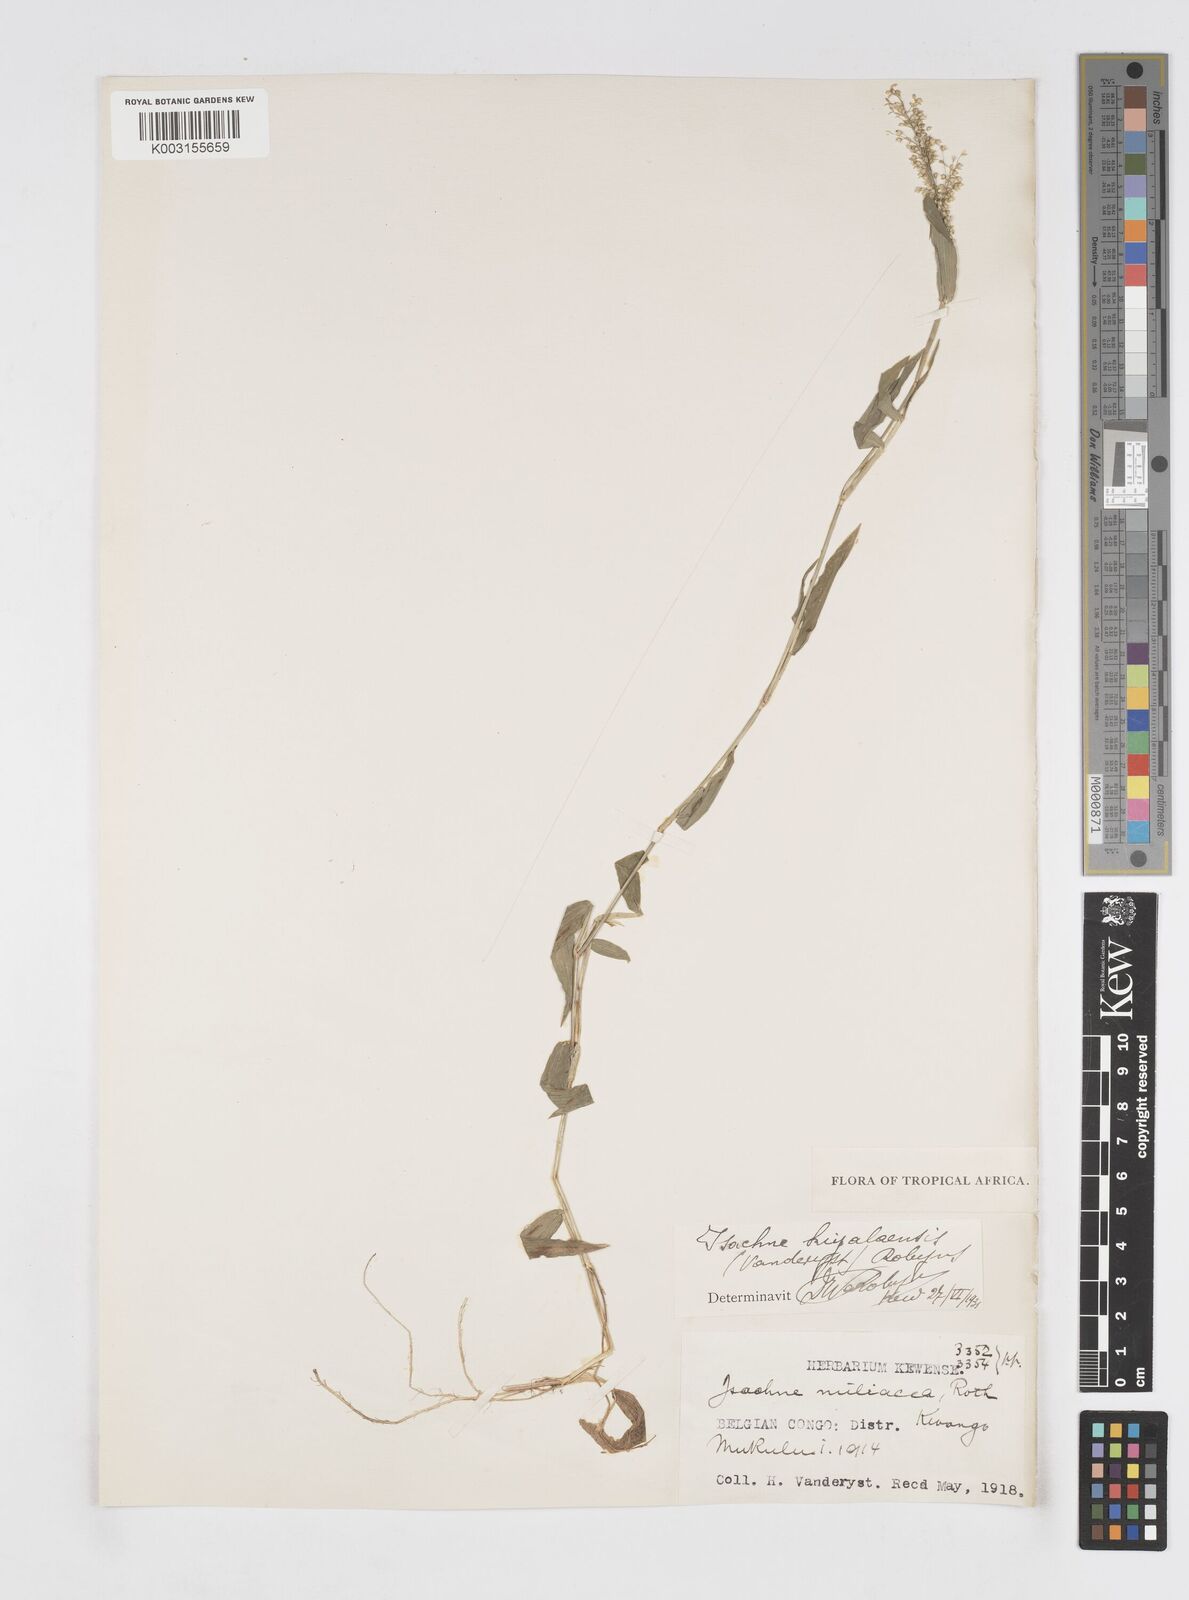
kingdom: Plantae
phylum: Tracheophyta
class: Liliopsida
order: Poales
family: Poaceae
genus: Isachne
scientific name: Isachne kiyalaensis
